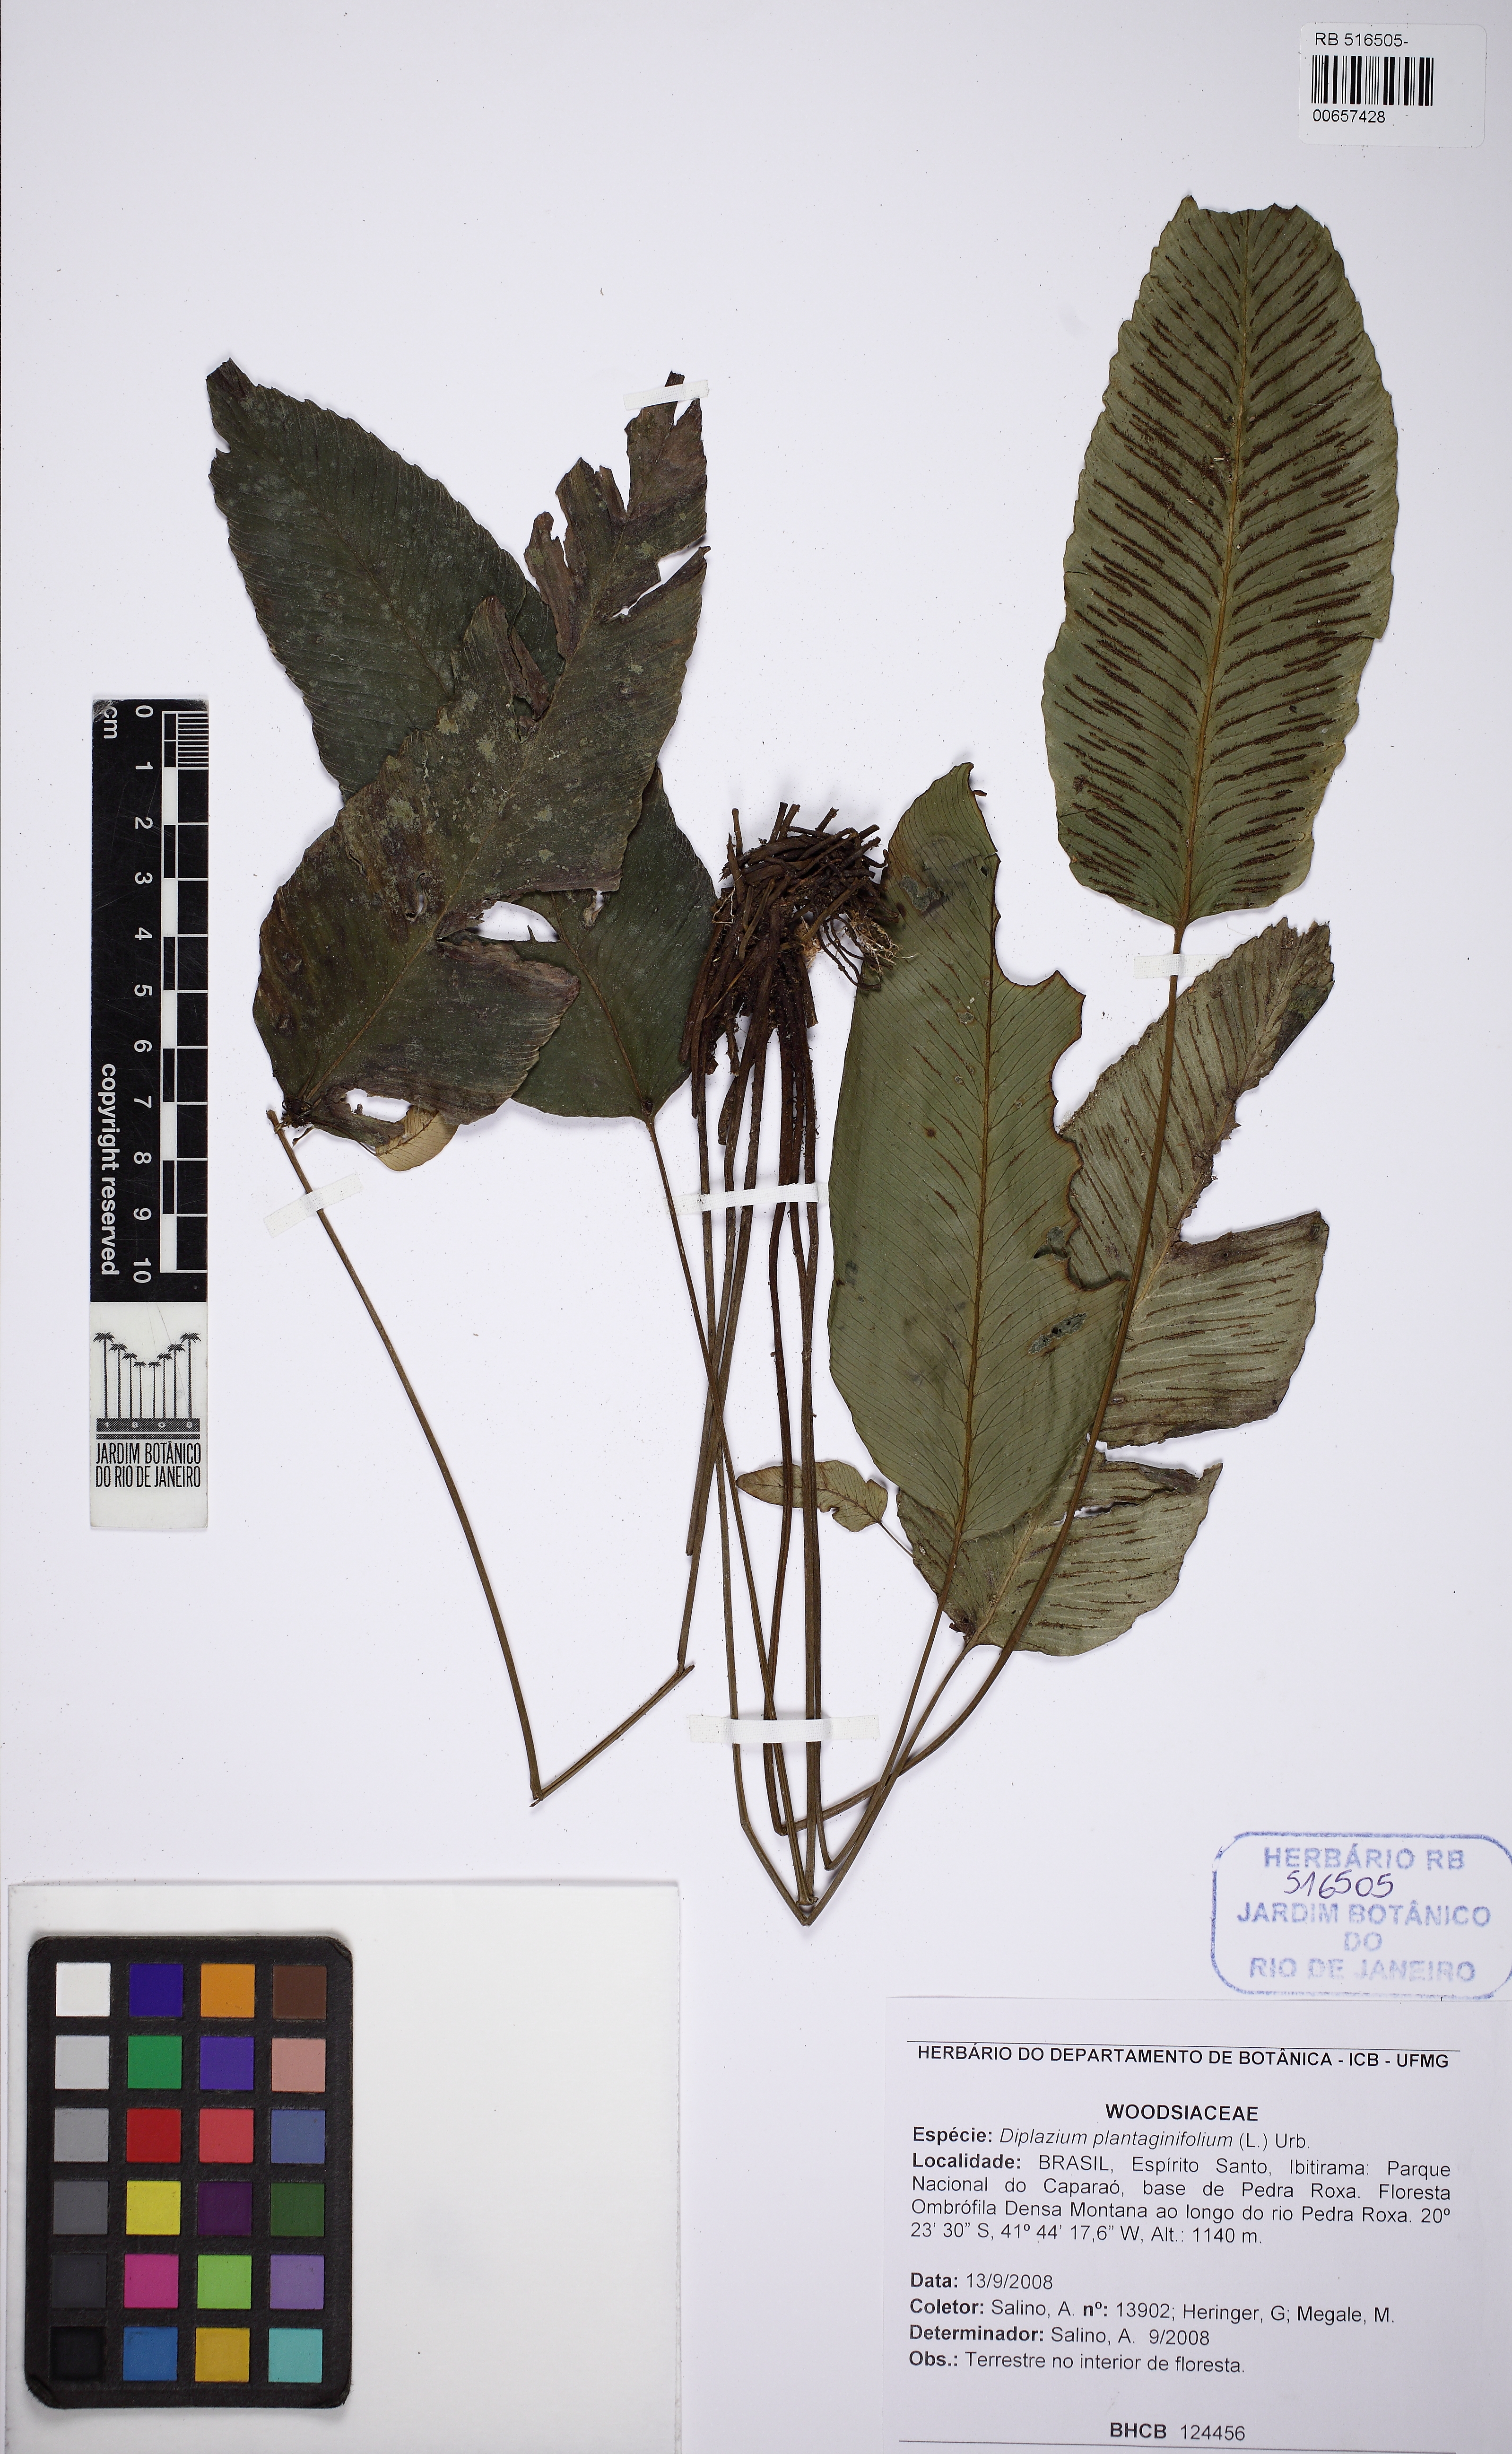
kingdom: Plantae
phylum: Tracheophyta
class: Polypodiopsida
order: Polypodiales
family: Athyriaceae
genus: Diplazium
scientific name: Diplazium plantaginifolium
